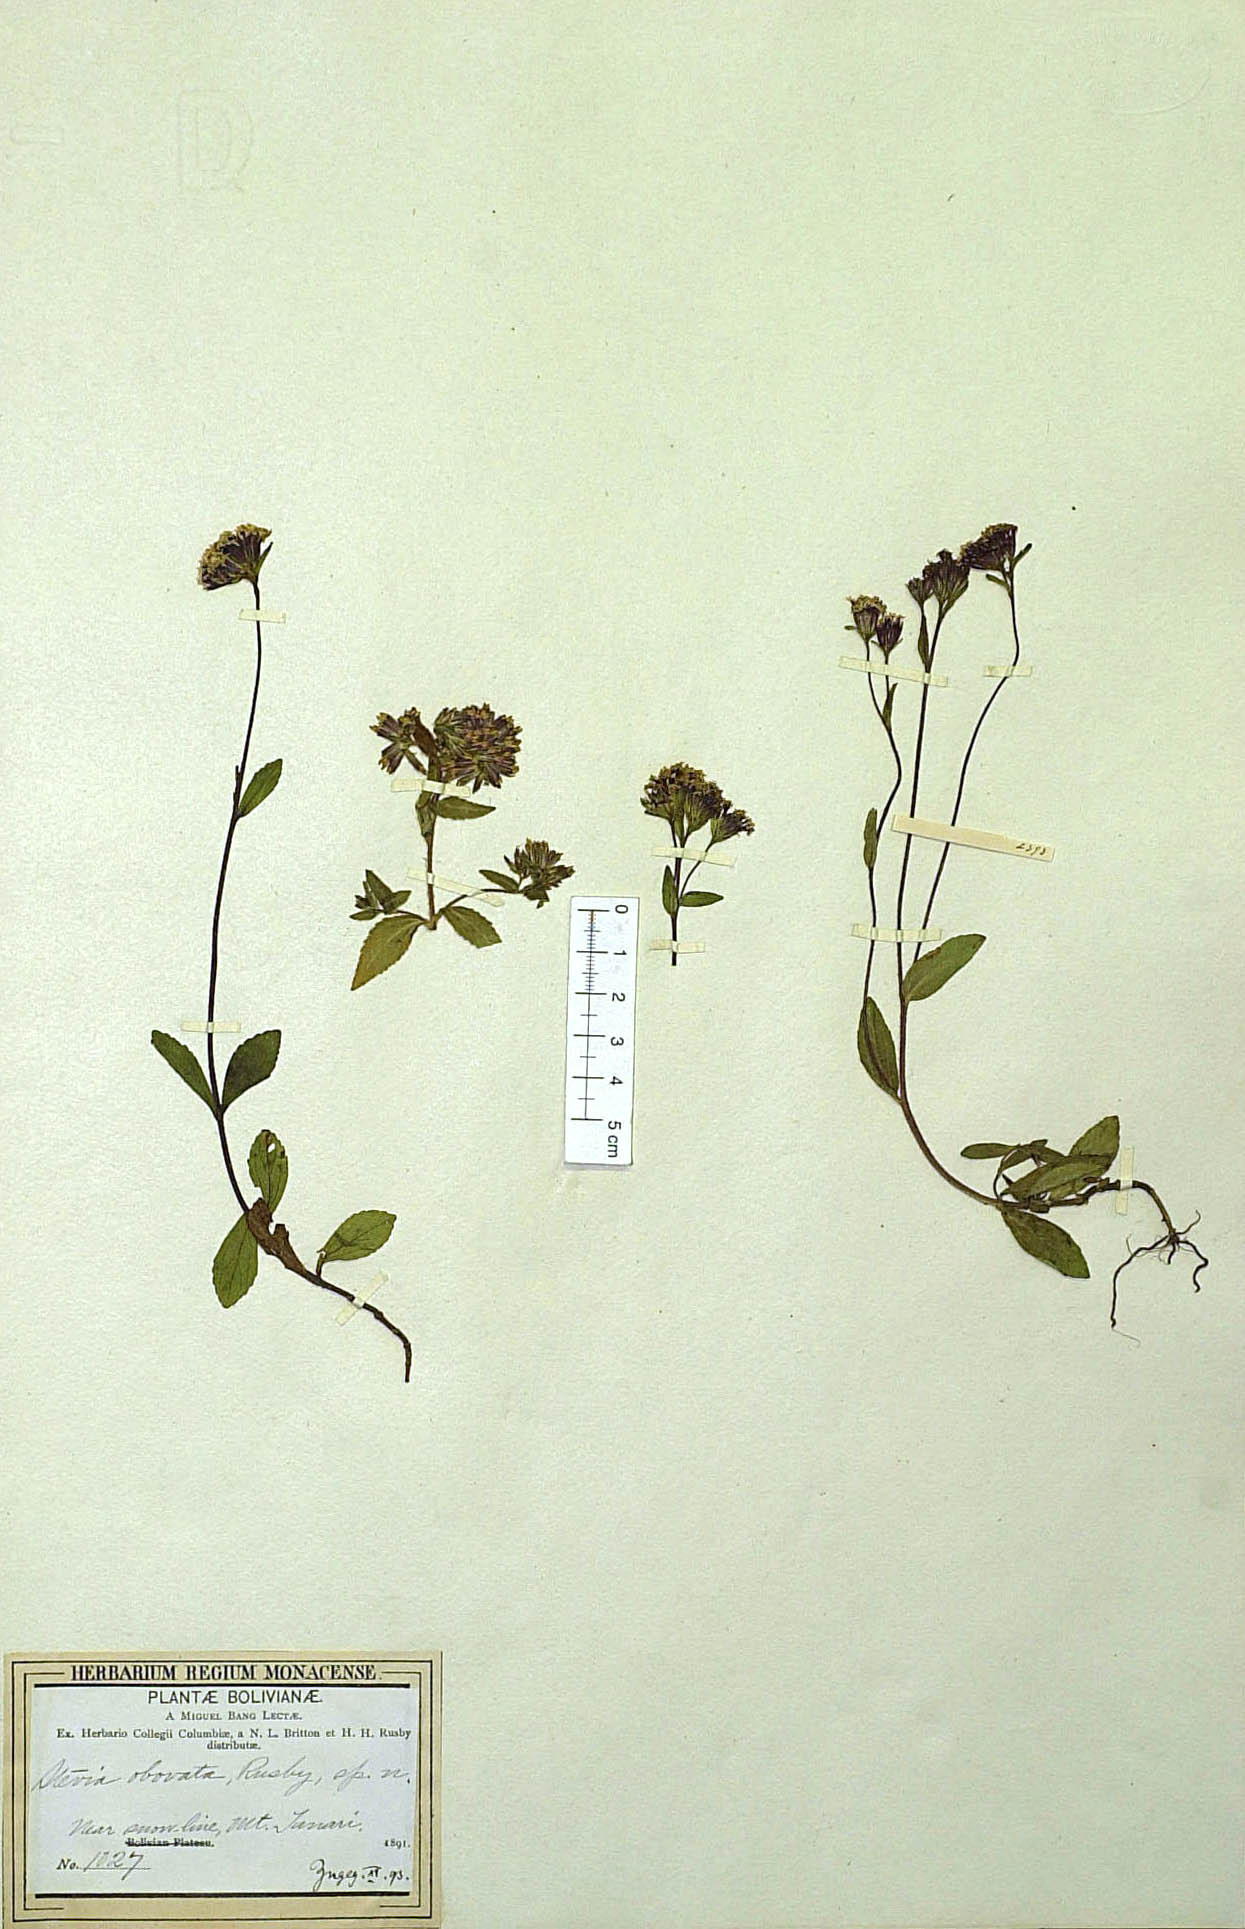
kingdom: Plantae
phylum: Tracheophyta
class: Magnoliopsida
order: Asterales
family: Asteraceae
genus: Stevia
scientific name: Stevia obovata
